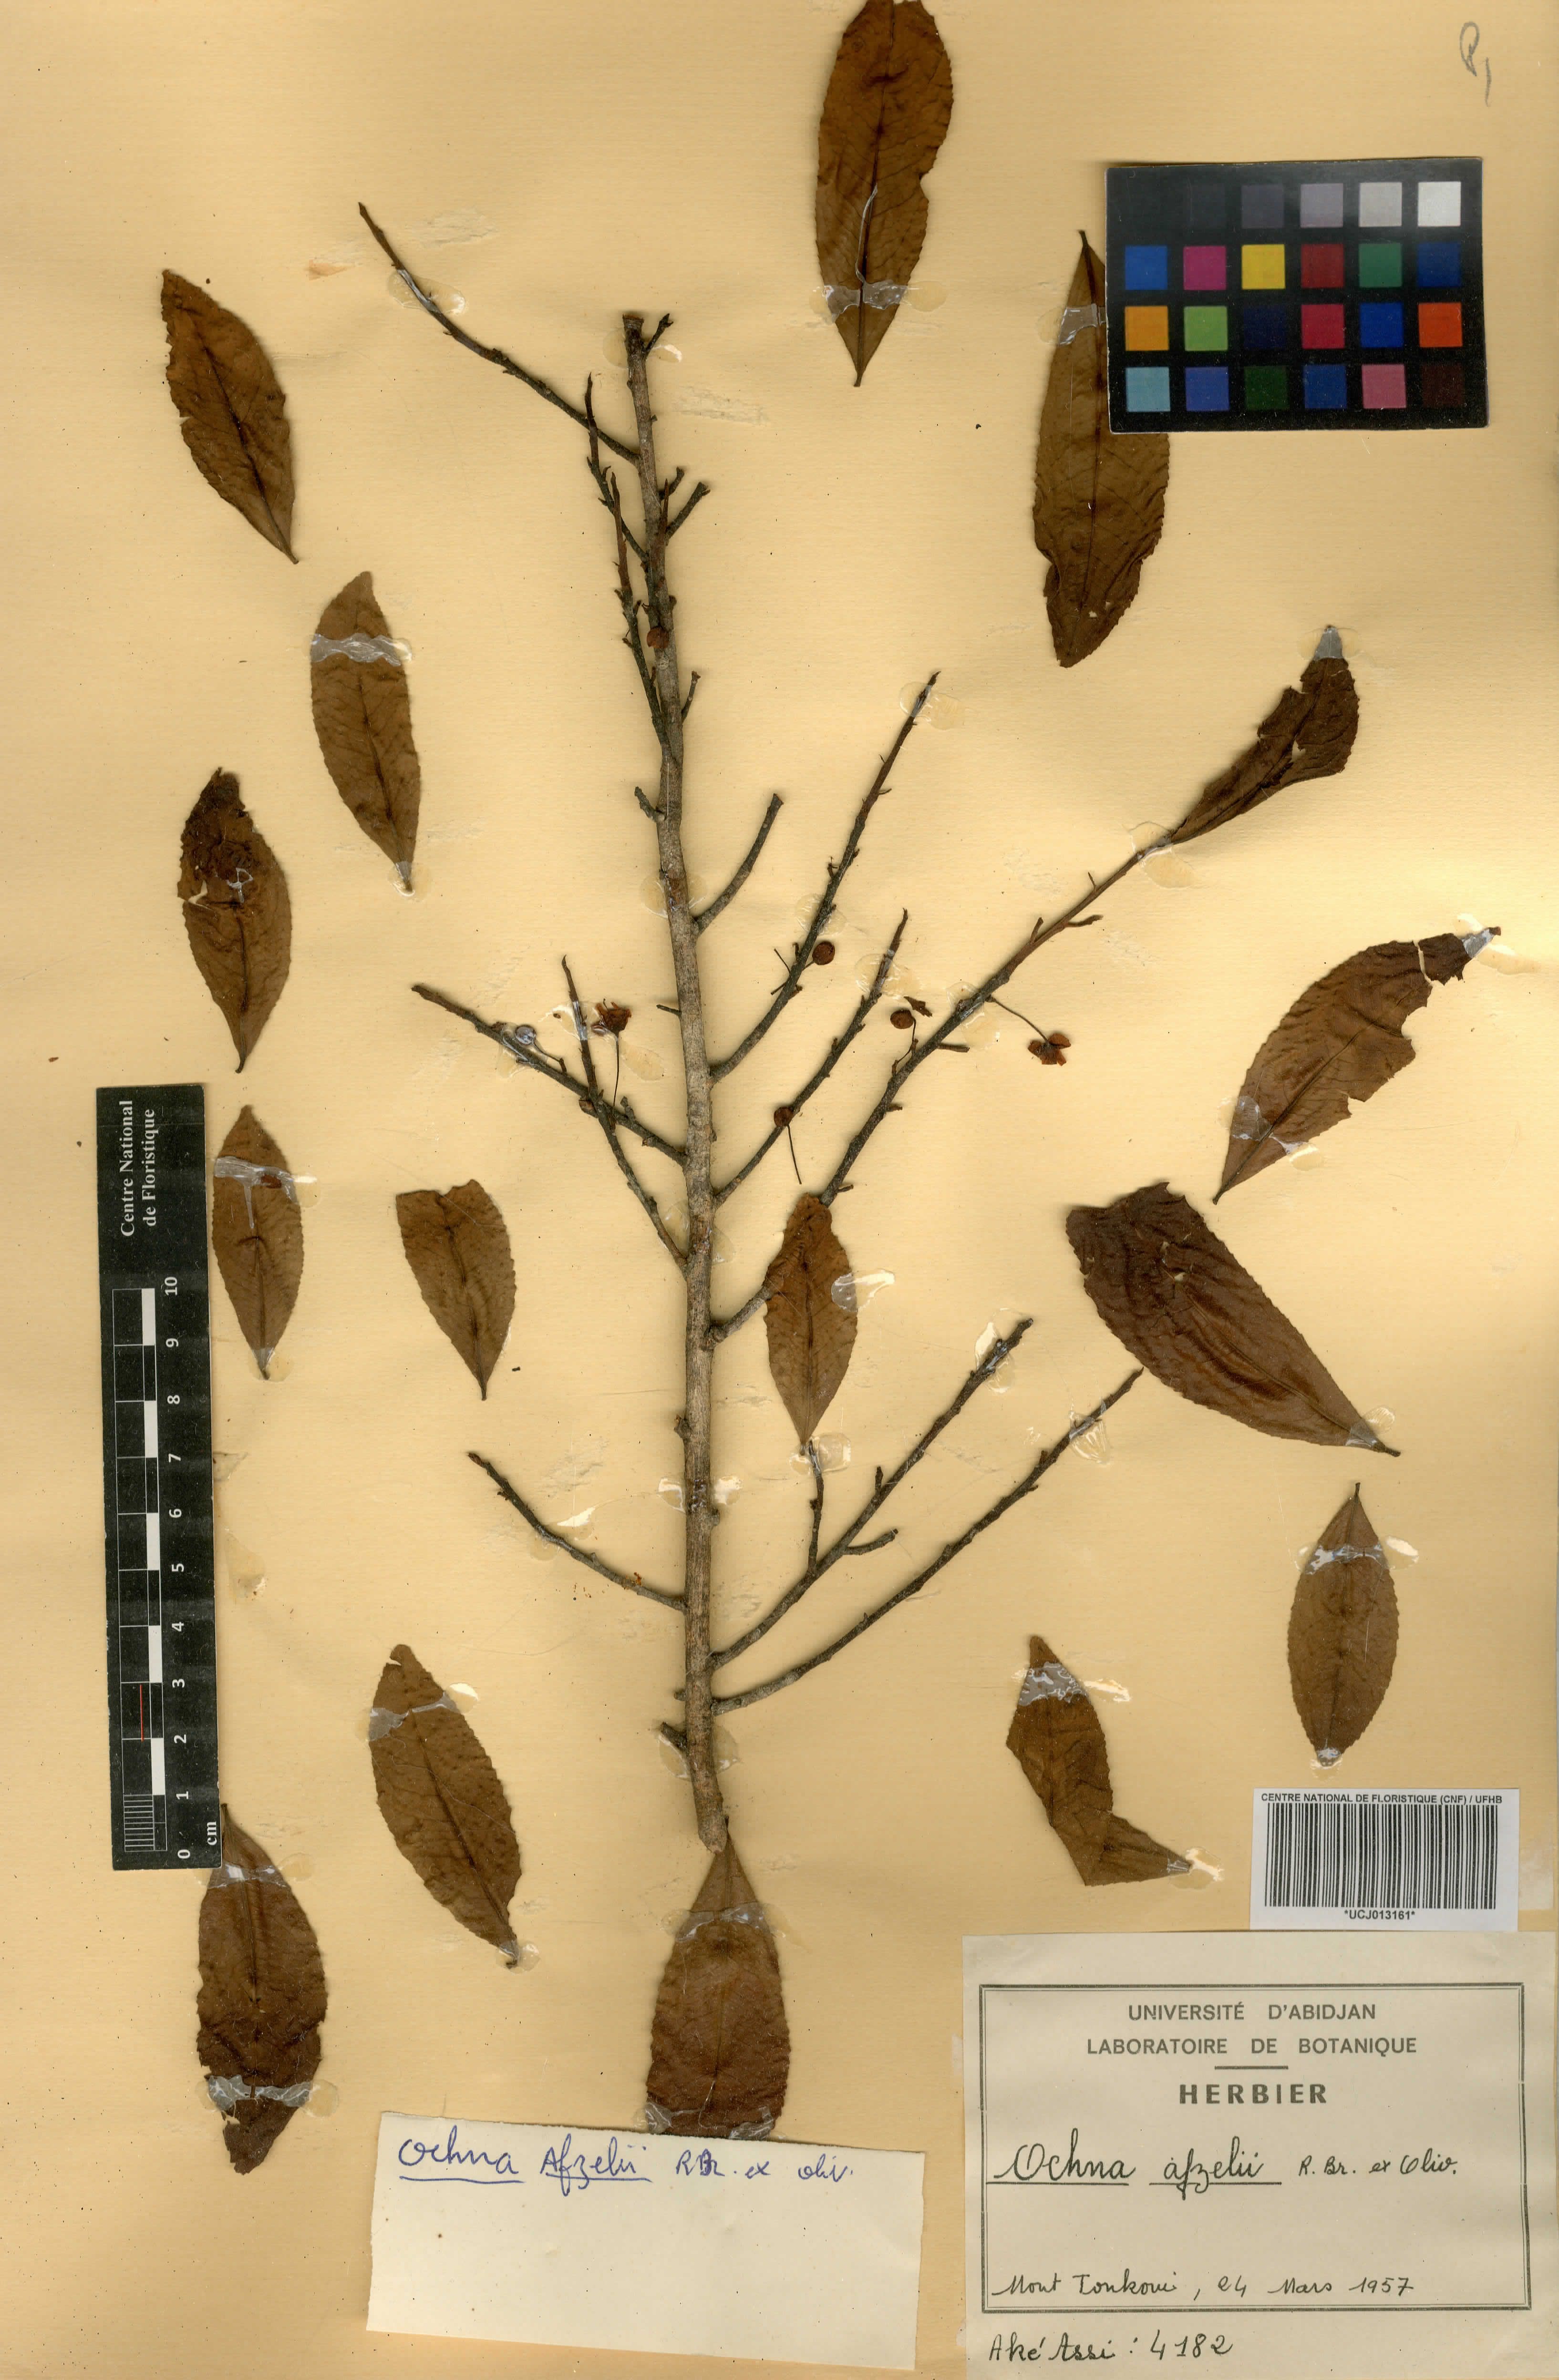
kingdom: Plantae
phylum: Tracheophyta
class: Magnoliopsida
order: Malpighiales
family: Ochnaceae
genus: Ochna
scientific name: Ochna afzelii
